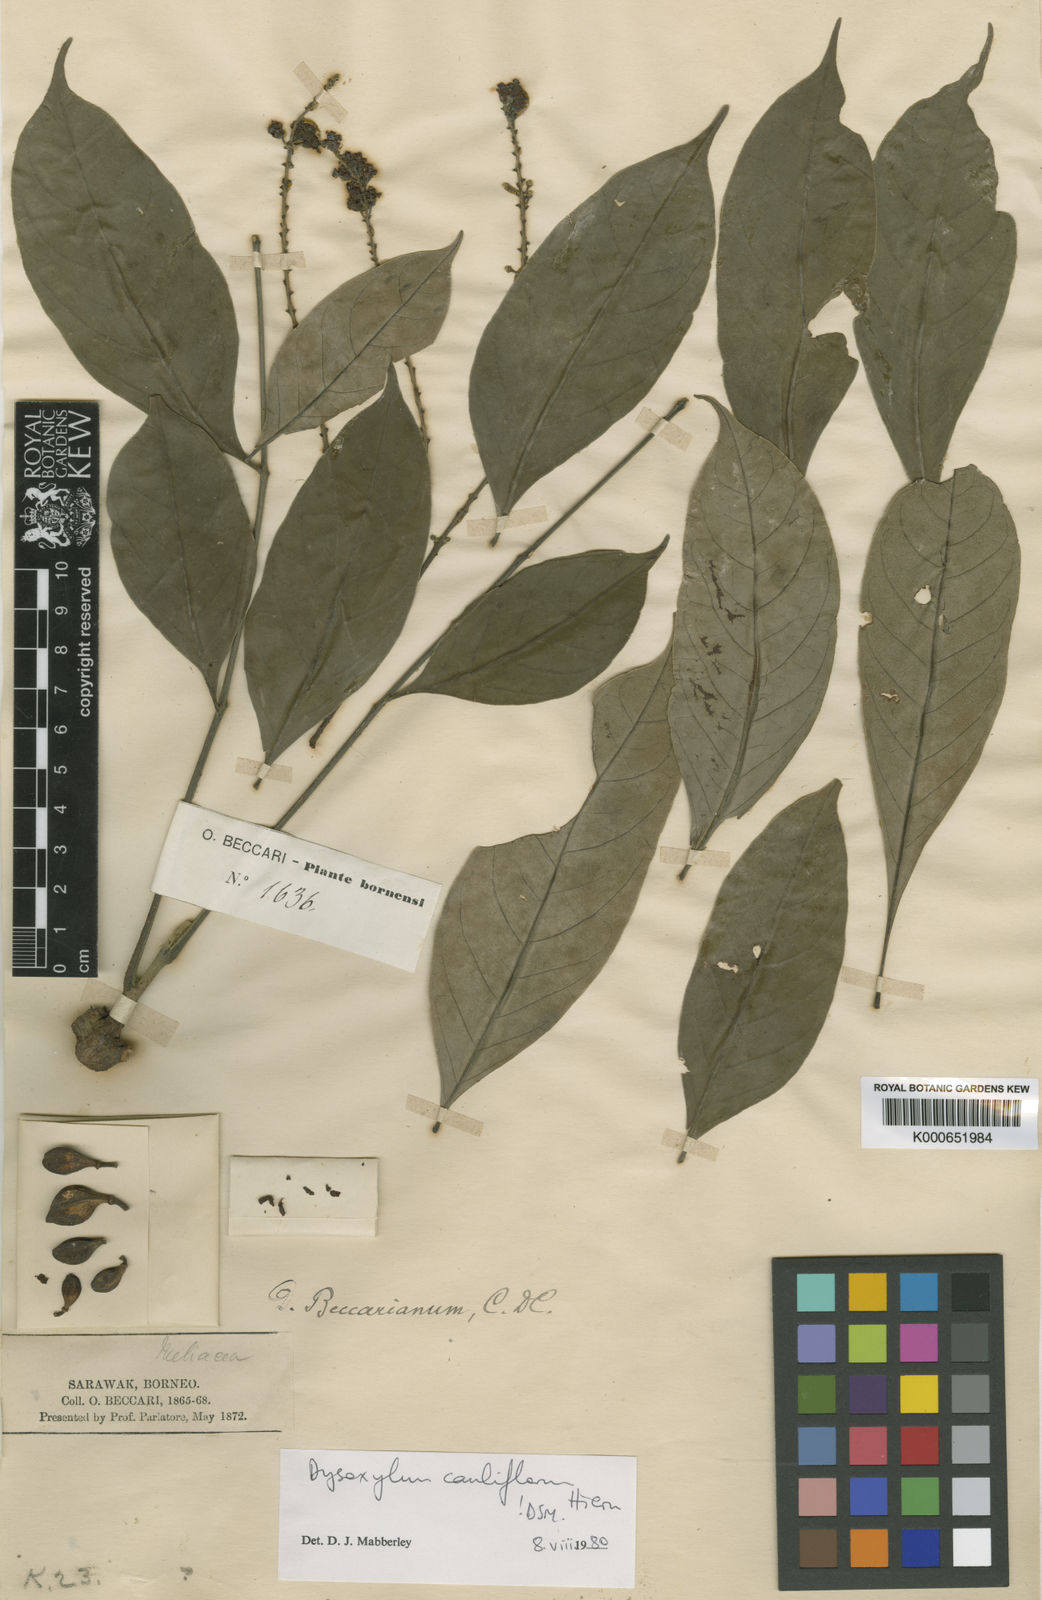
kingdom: Plantae
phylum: Tracheophyta
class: Magnoliopsida
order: Sapindales
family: Meliaceae
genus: Epicharis
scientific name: Epicharis cuneata
